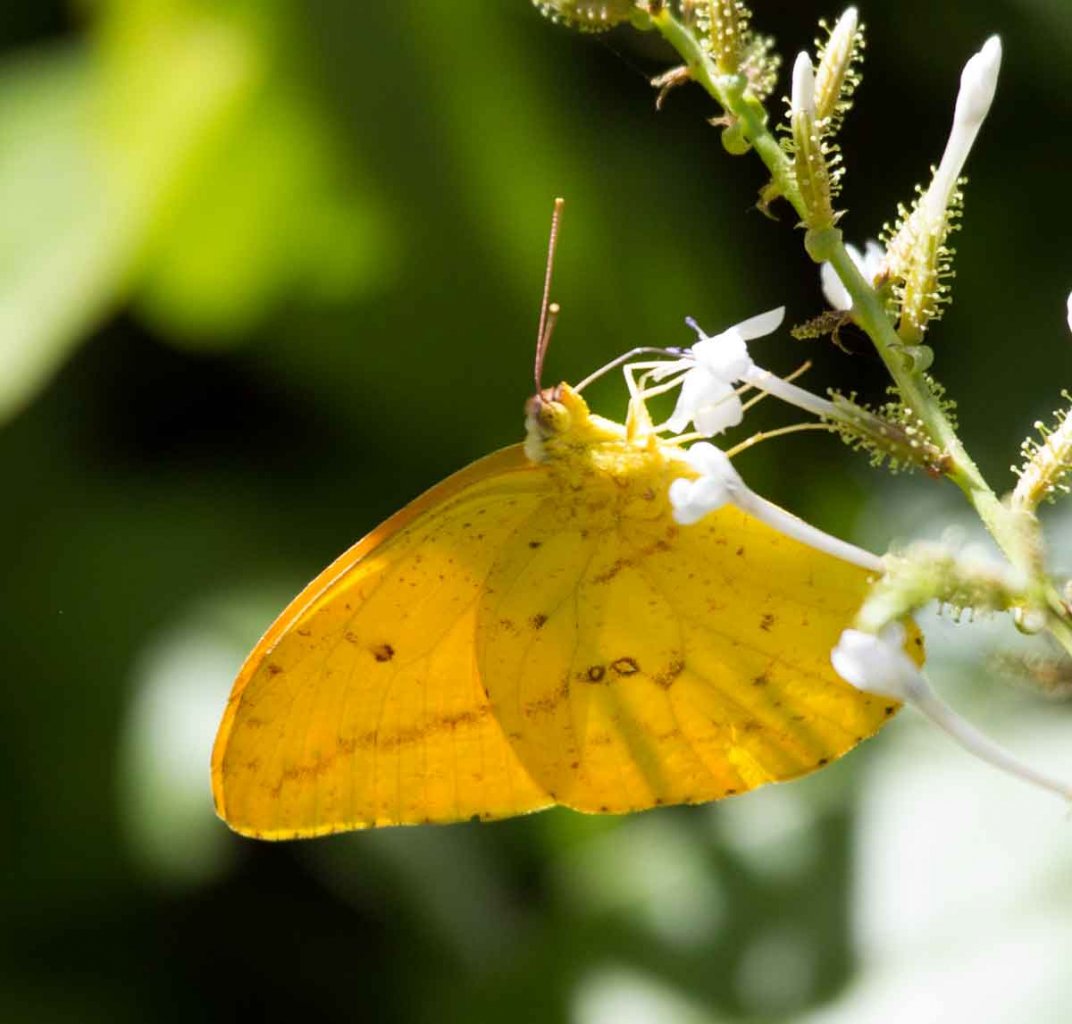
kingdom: Animalia
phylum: Arthropoda
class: Insecta
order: Lepidoptera
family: Pieridae
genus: Phoebis
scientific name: Phoebis agarithe
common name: Large Orange Sulphur
